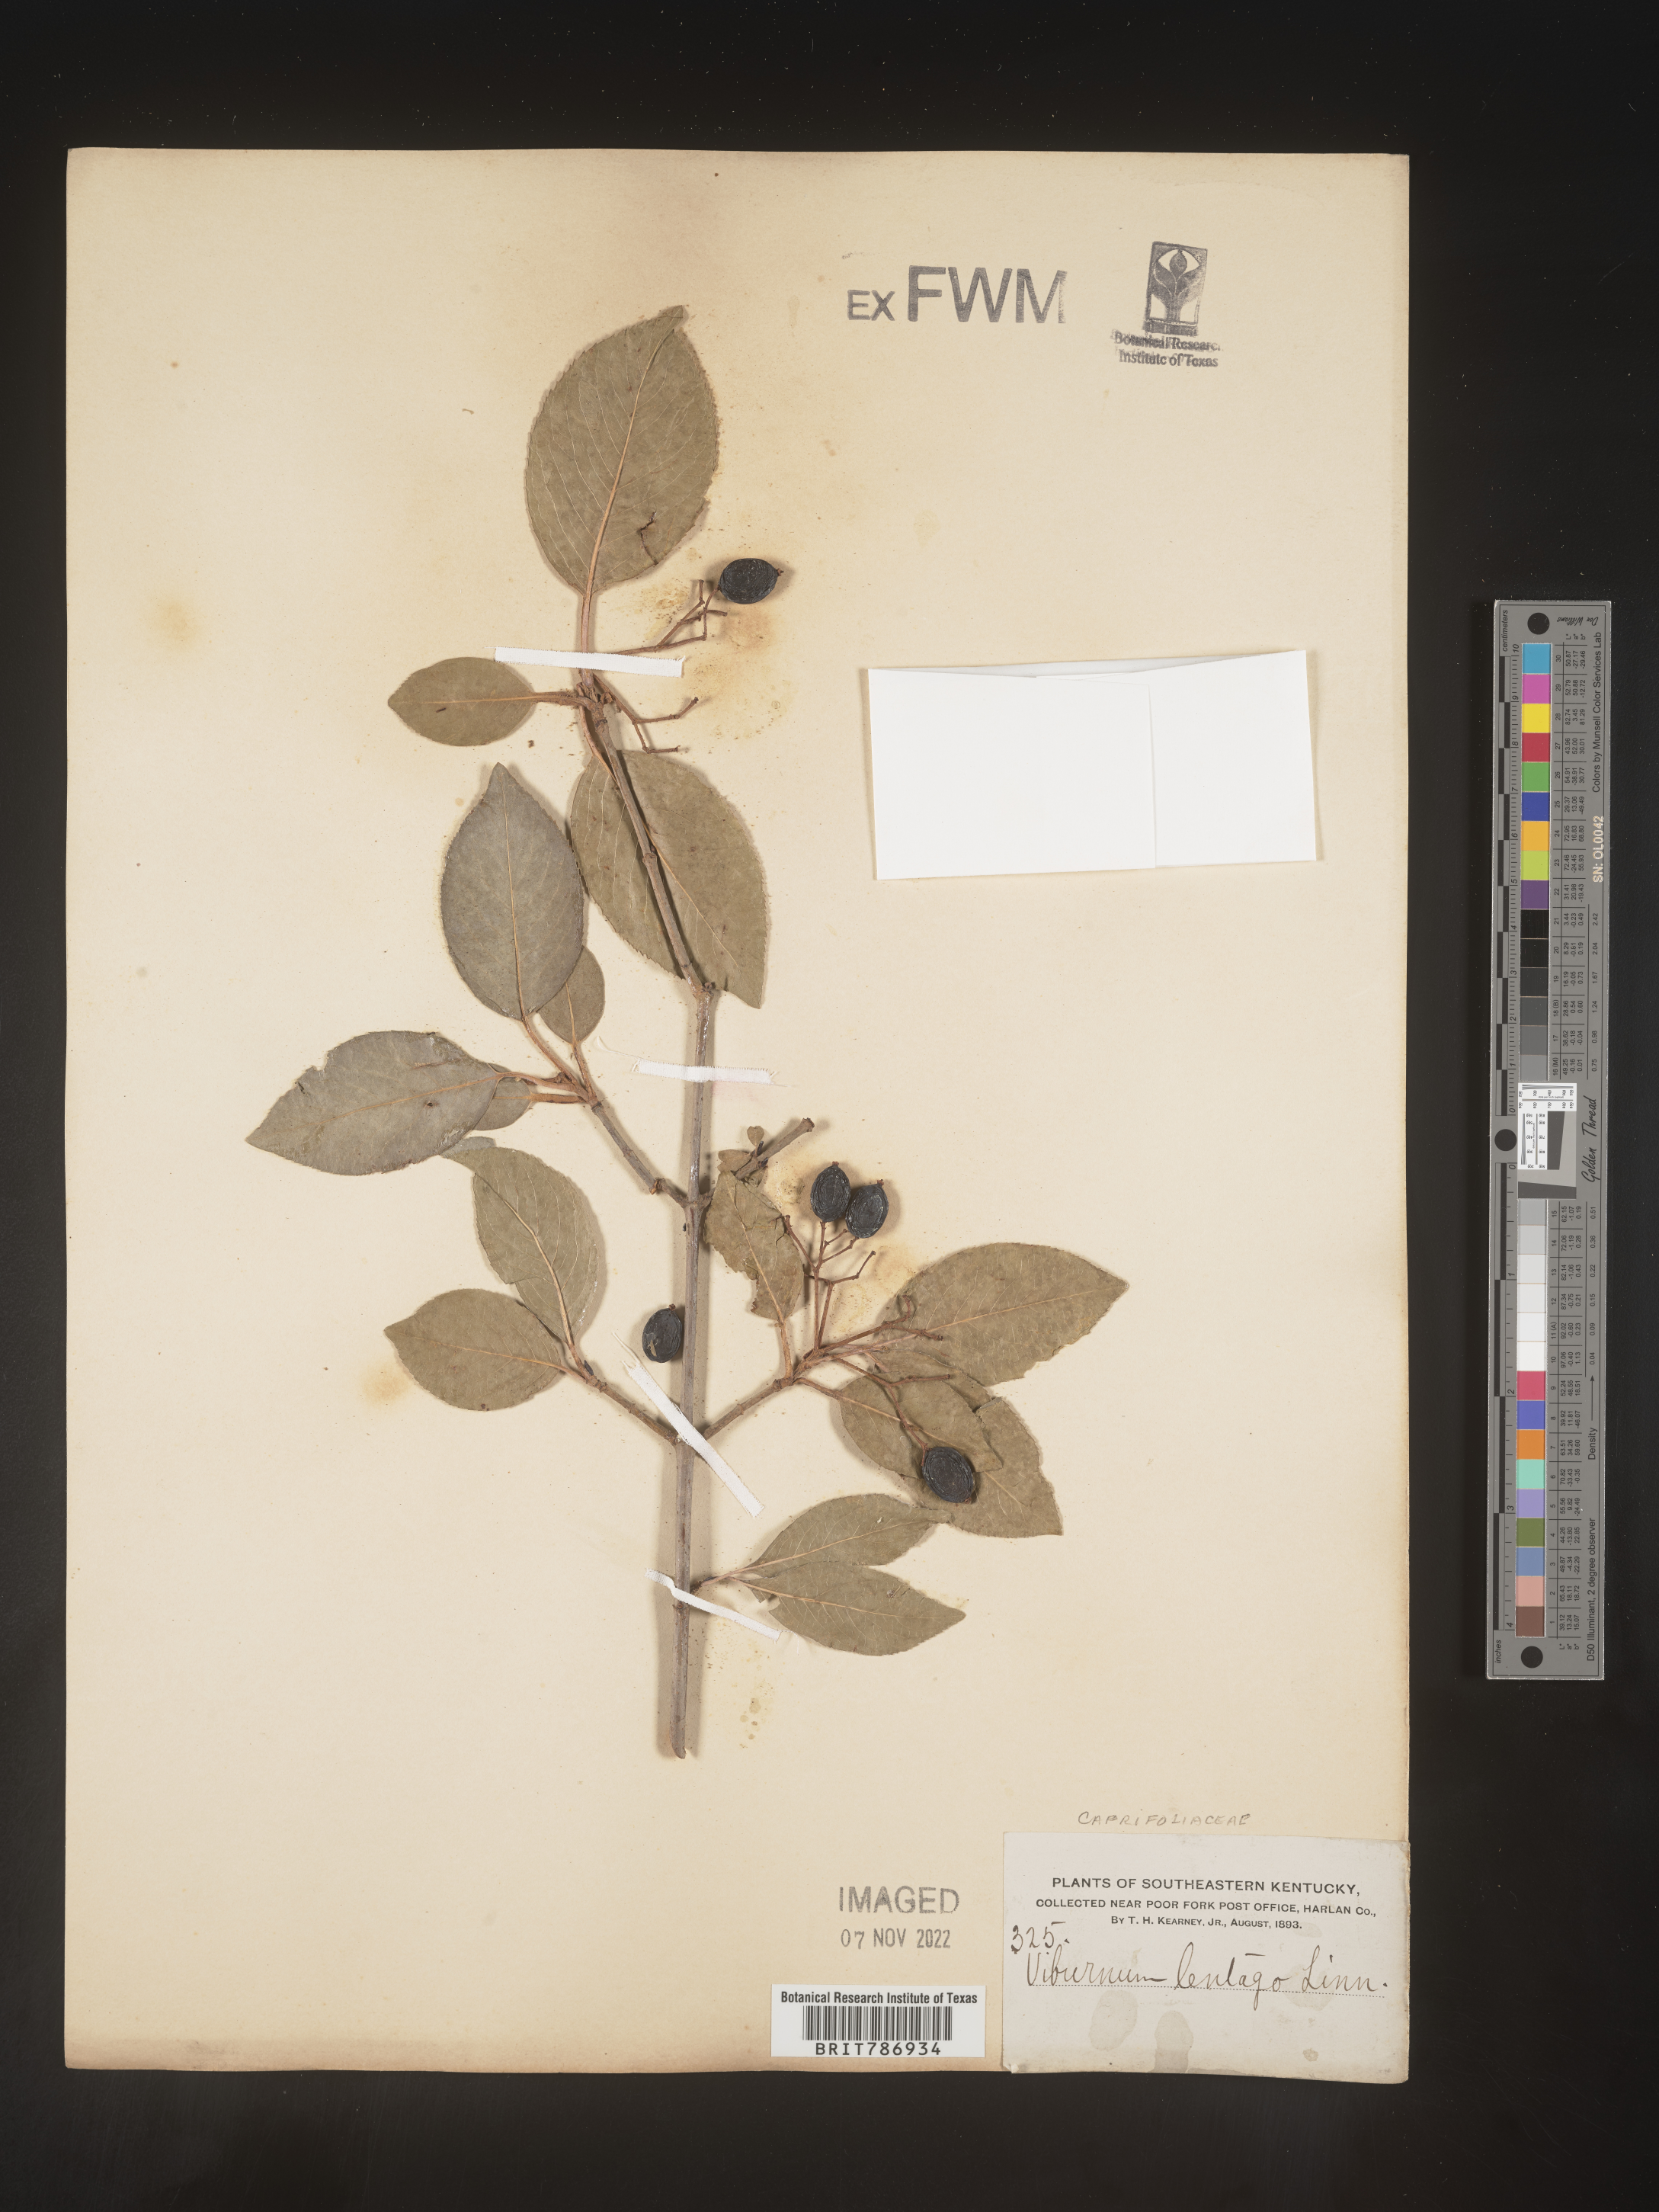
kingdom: Plantae
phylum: Tracheophyta
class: Magnoliopsida
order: Dipsacales
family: Viburnaceae
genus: Viburnum
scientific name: Viburnum lentago
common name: Black haw
